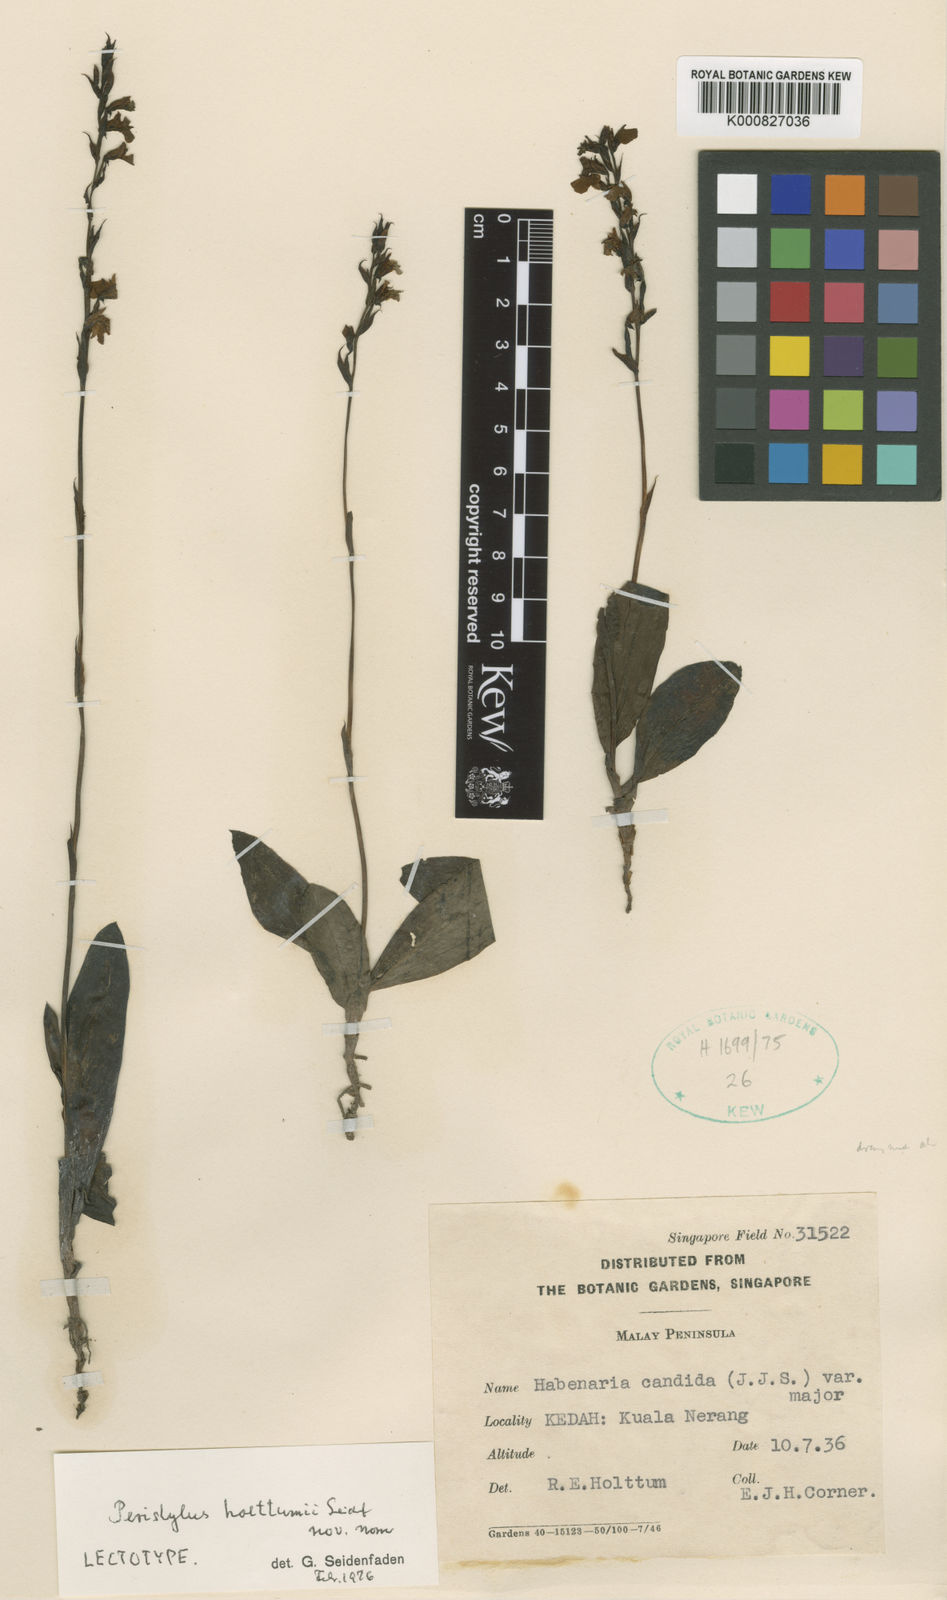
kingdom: Plantae
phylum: Tracheophyta
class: Liliopsida
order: Asparagales
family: Orchidaceae
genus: Peristylus
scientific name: Peristylus holttumii
